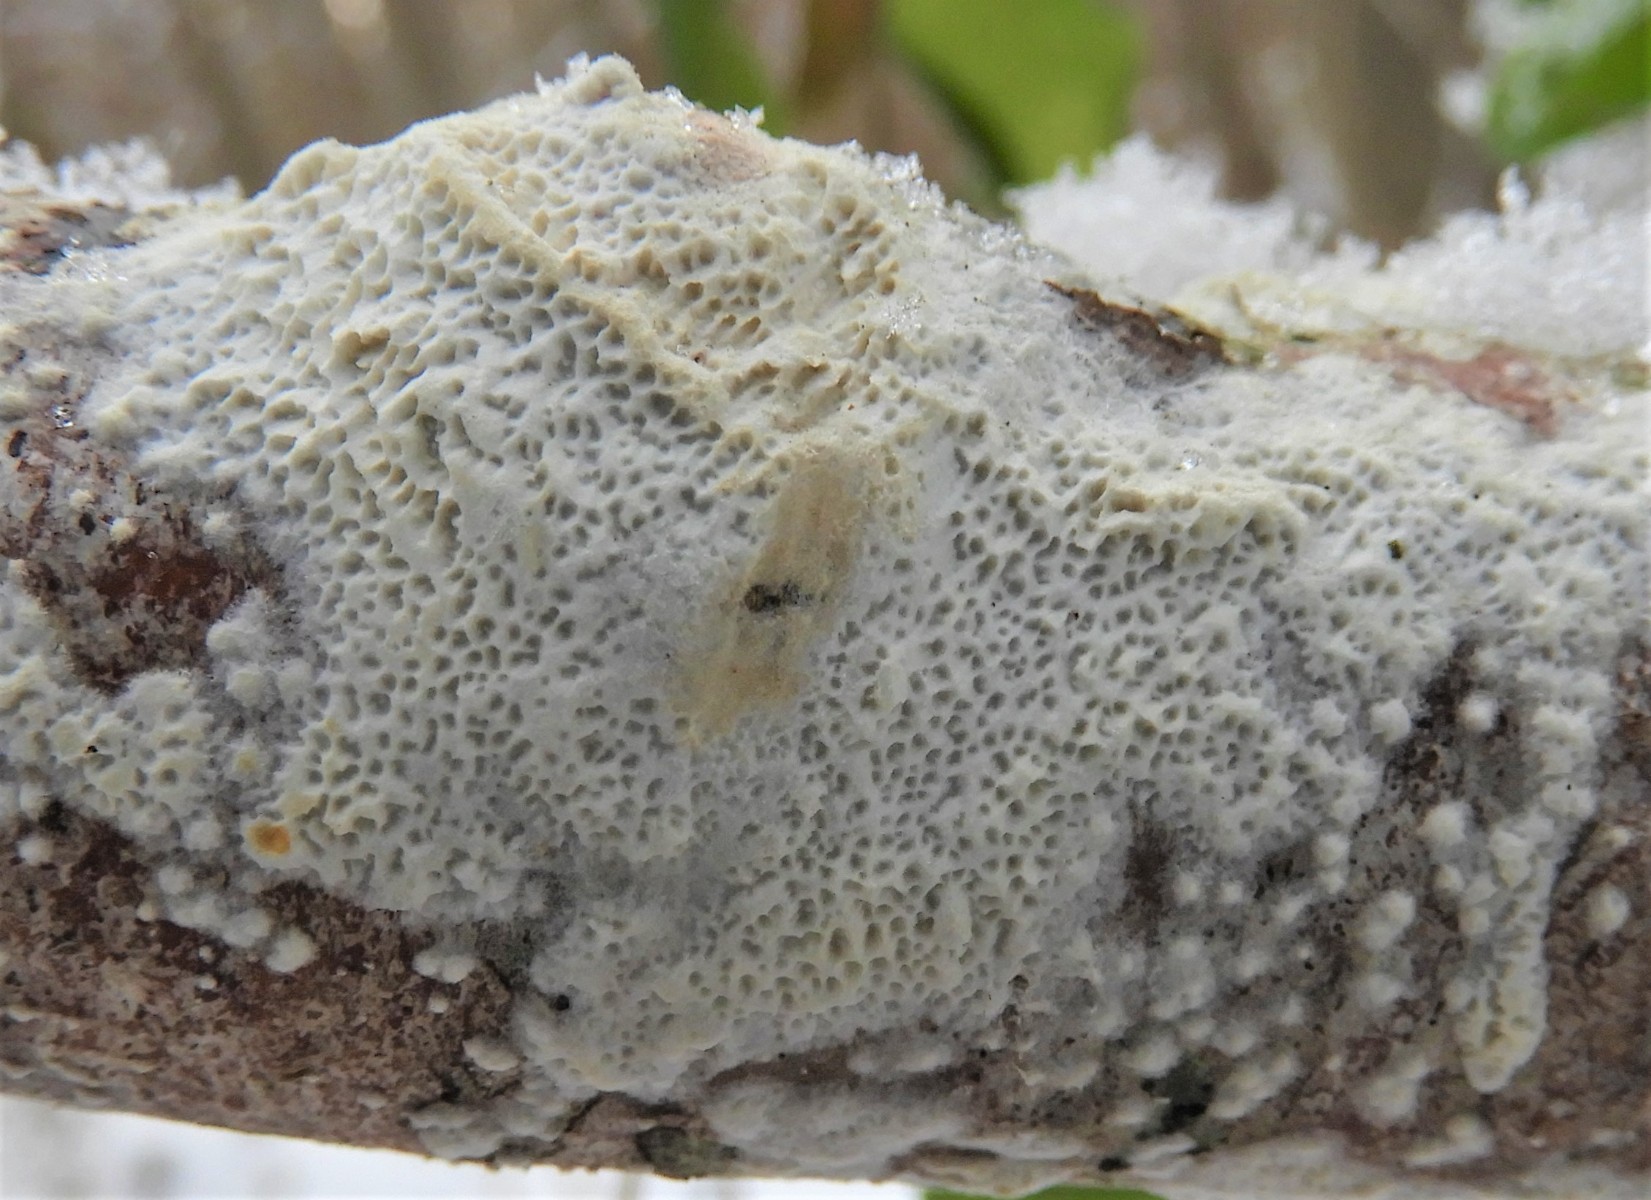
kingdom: Fungi
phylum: Basidiomycota
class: Agaricomycetes
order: Polyporales
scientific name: Polyporales
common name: poresvampordenen
